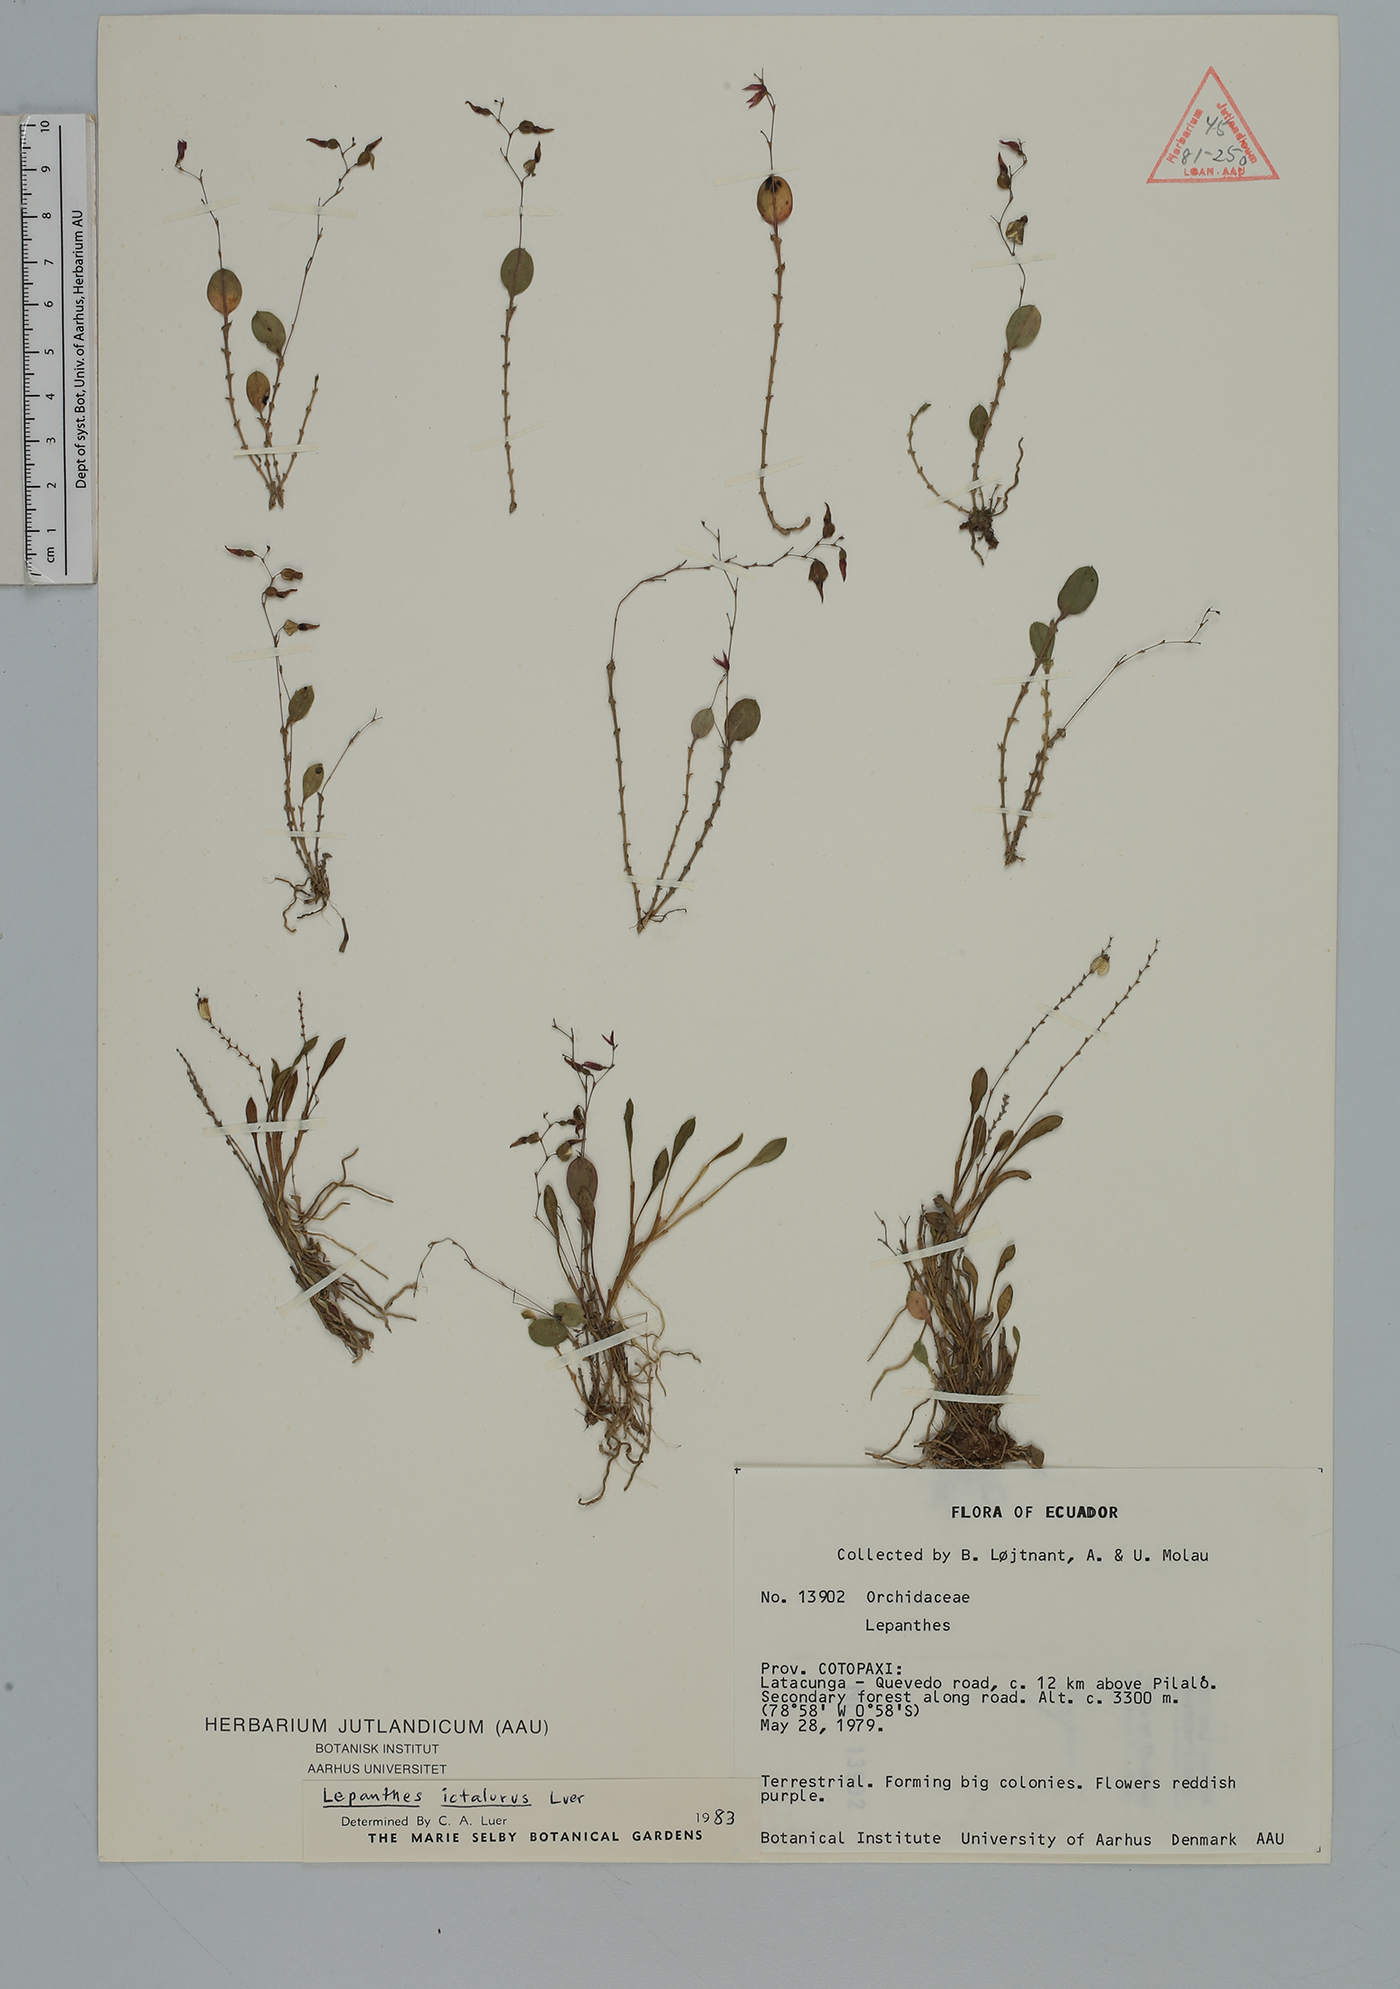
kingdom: Plantae
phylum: Tracheophyta
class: Liliopsida
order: Asparagales
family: Orchidaceae
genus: Lepanthes
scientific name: Lepanthes
